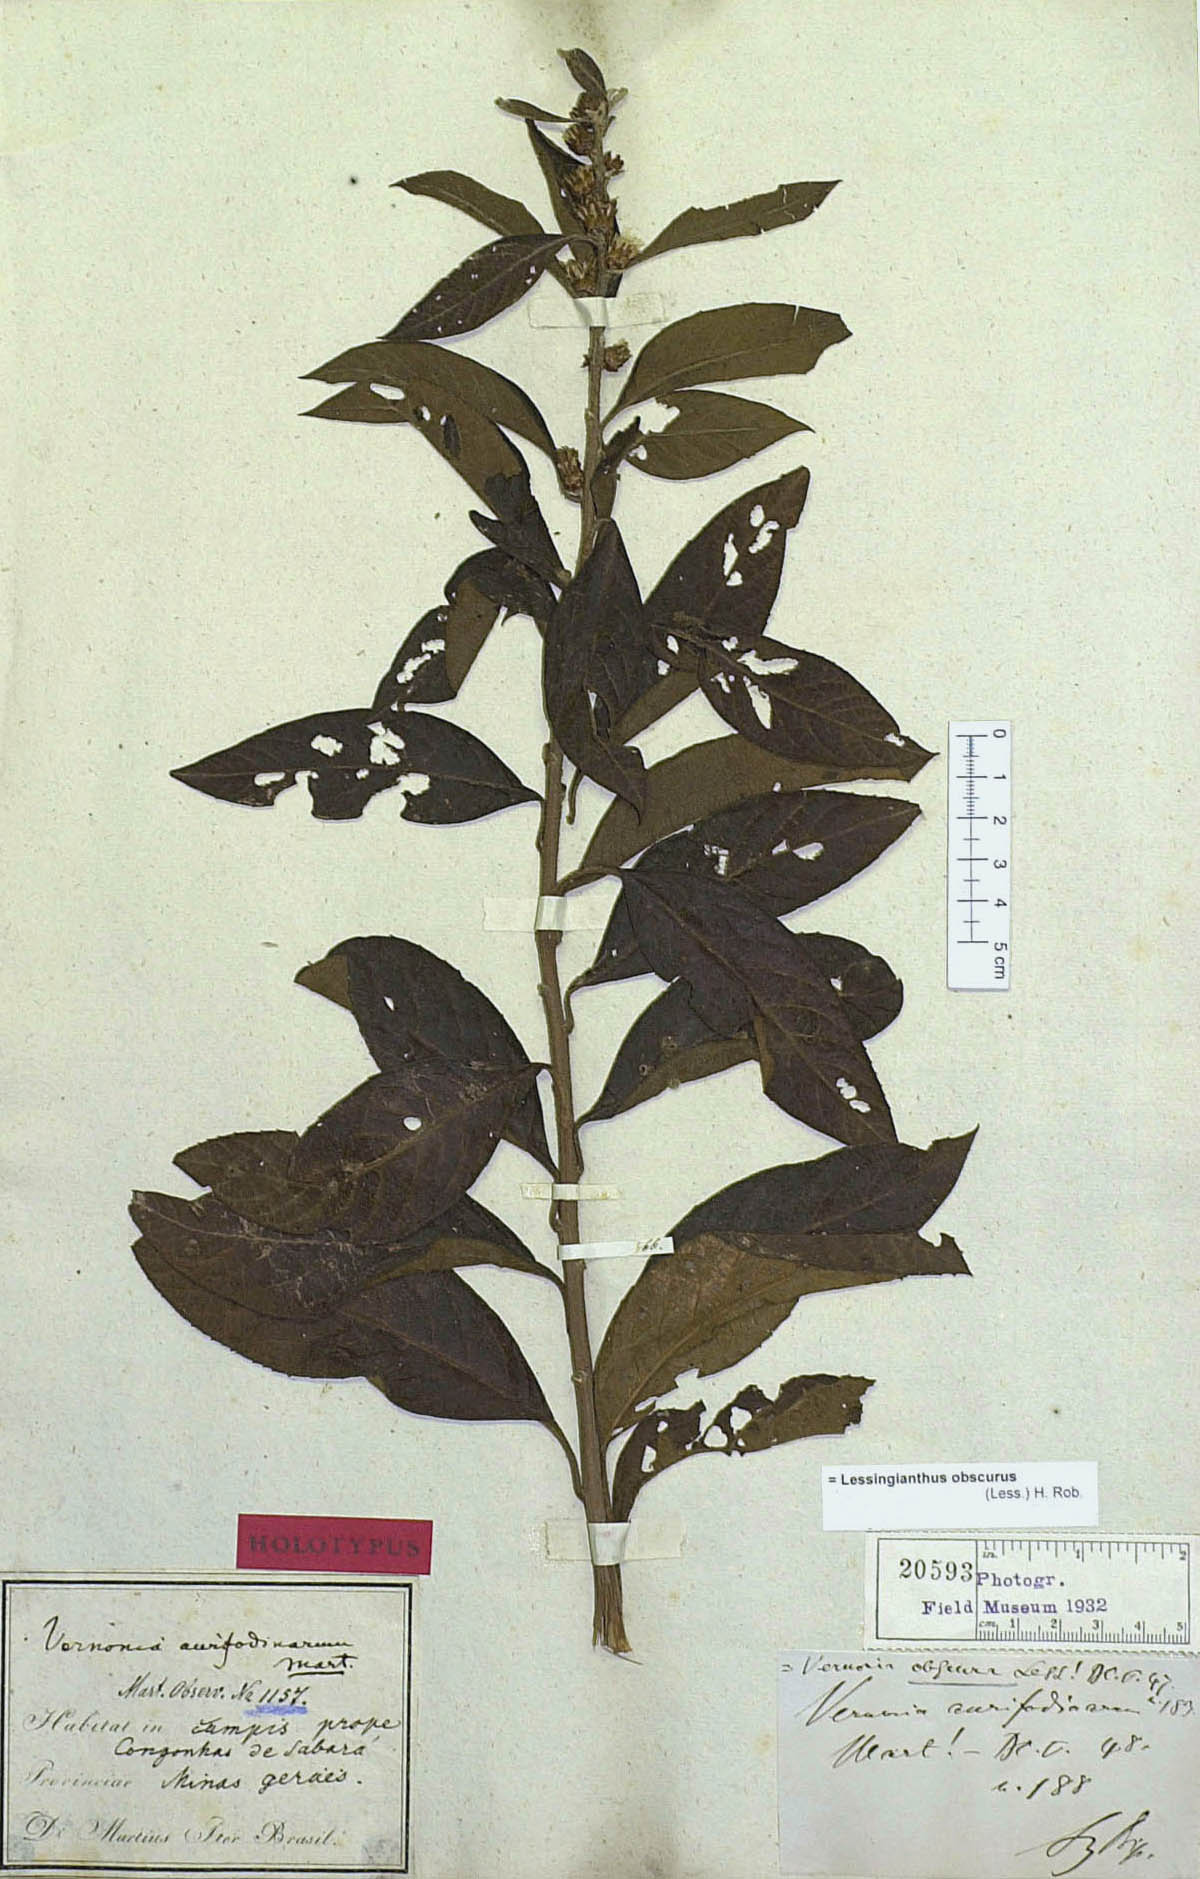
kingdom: Plantae
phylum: Tracheophyta
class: Magnoliopsida
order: Asterales
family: Asteraceae
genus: Lessingianthus
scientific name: Lessingianthus obscurus
